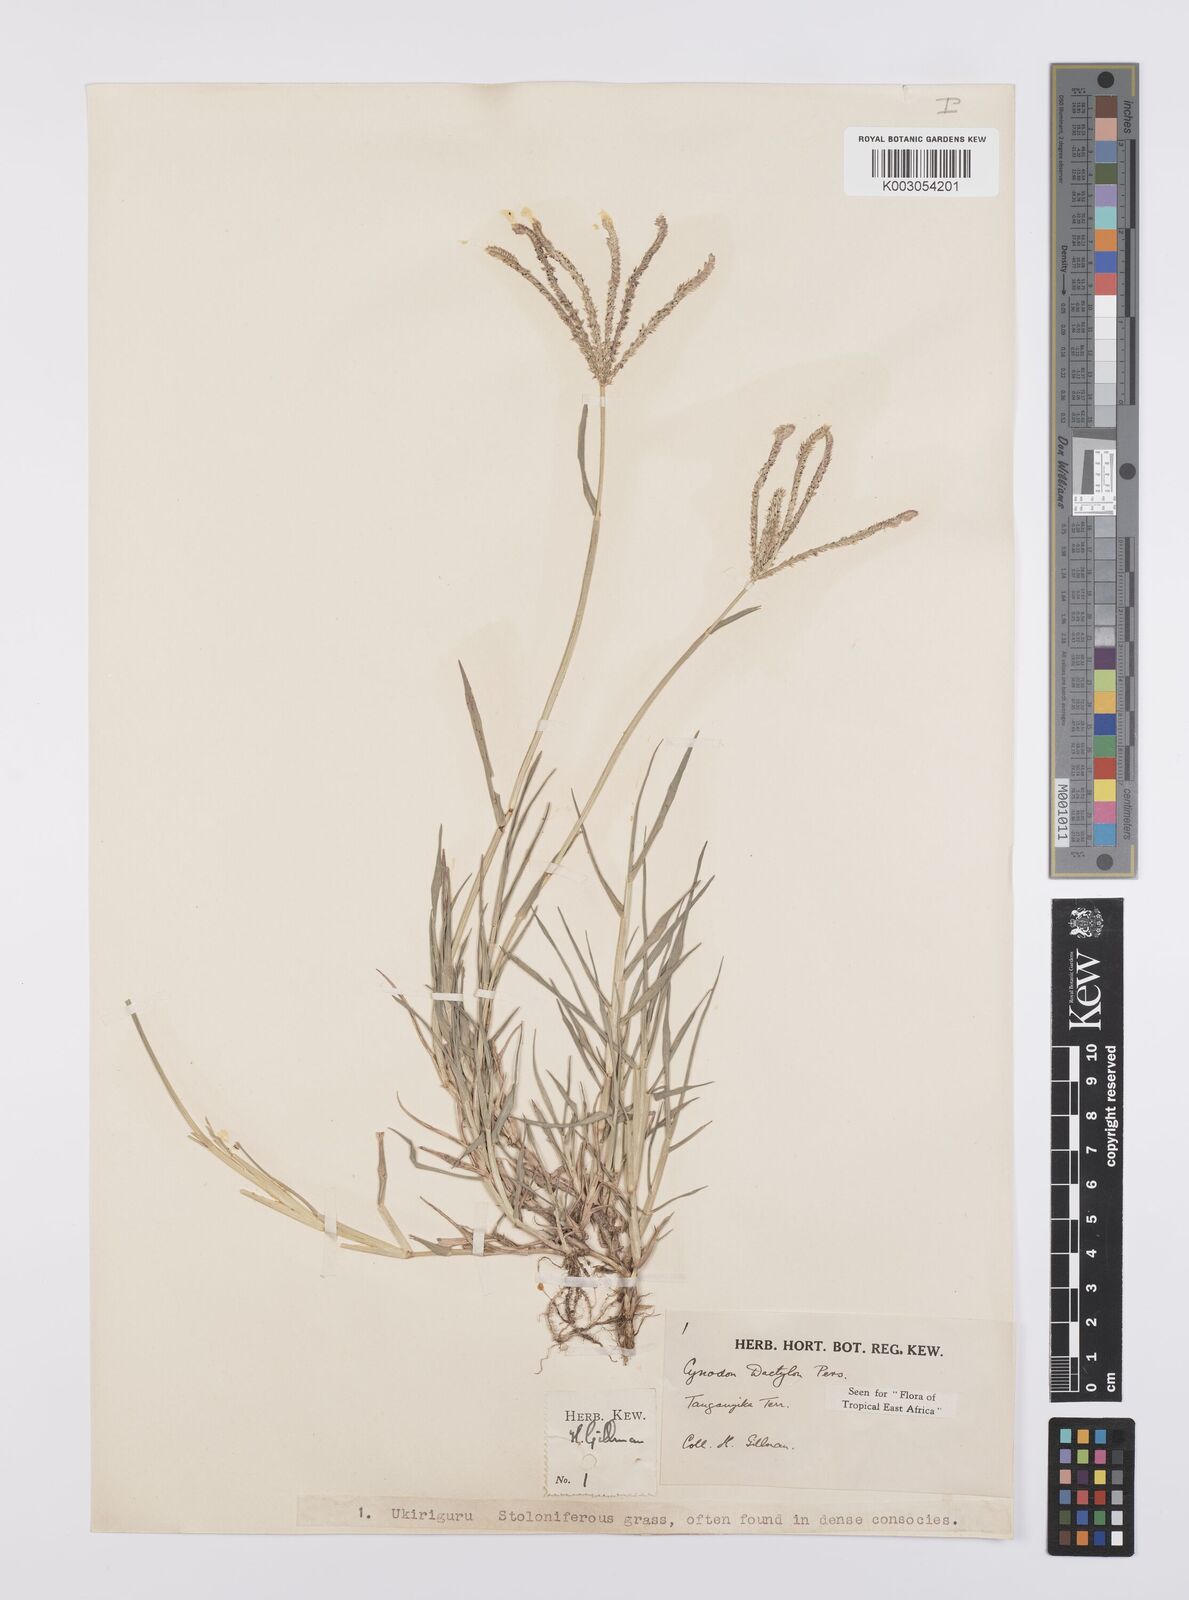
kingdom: Plantae
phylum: Tracheophyta
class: Liliopsida
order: Poales
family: Poaceae
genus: Cynodon
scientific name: Cynodon dactylon
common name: Bermuda grass
